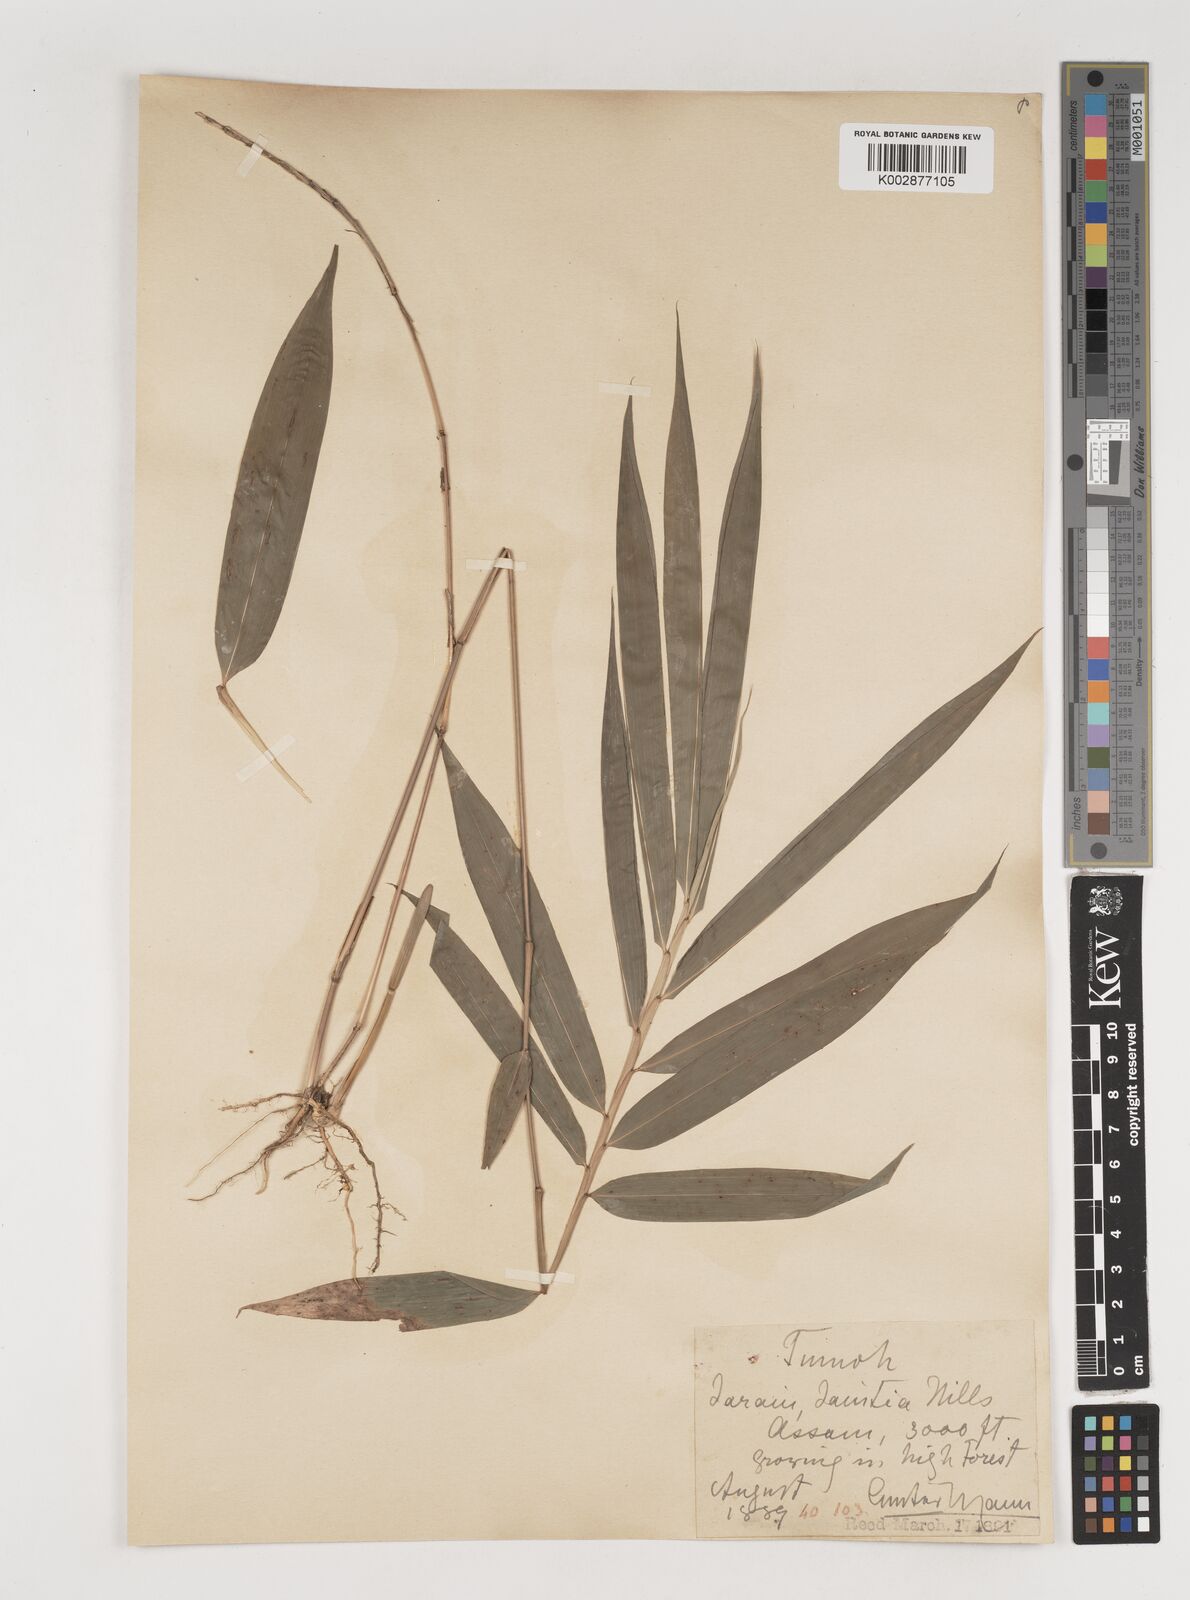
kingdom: Plantae
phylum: Tracheophyta
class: Liliopsida
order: Poales
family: Poaceae
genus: Bambusa
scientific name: Bambusa
